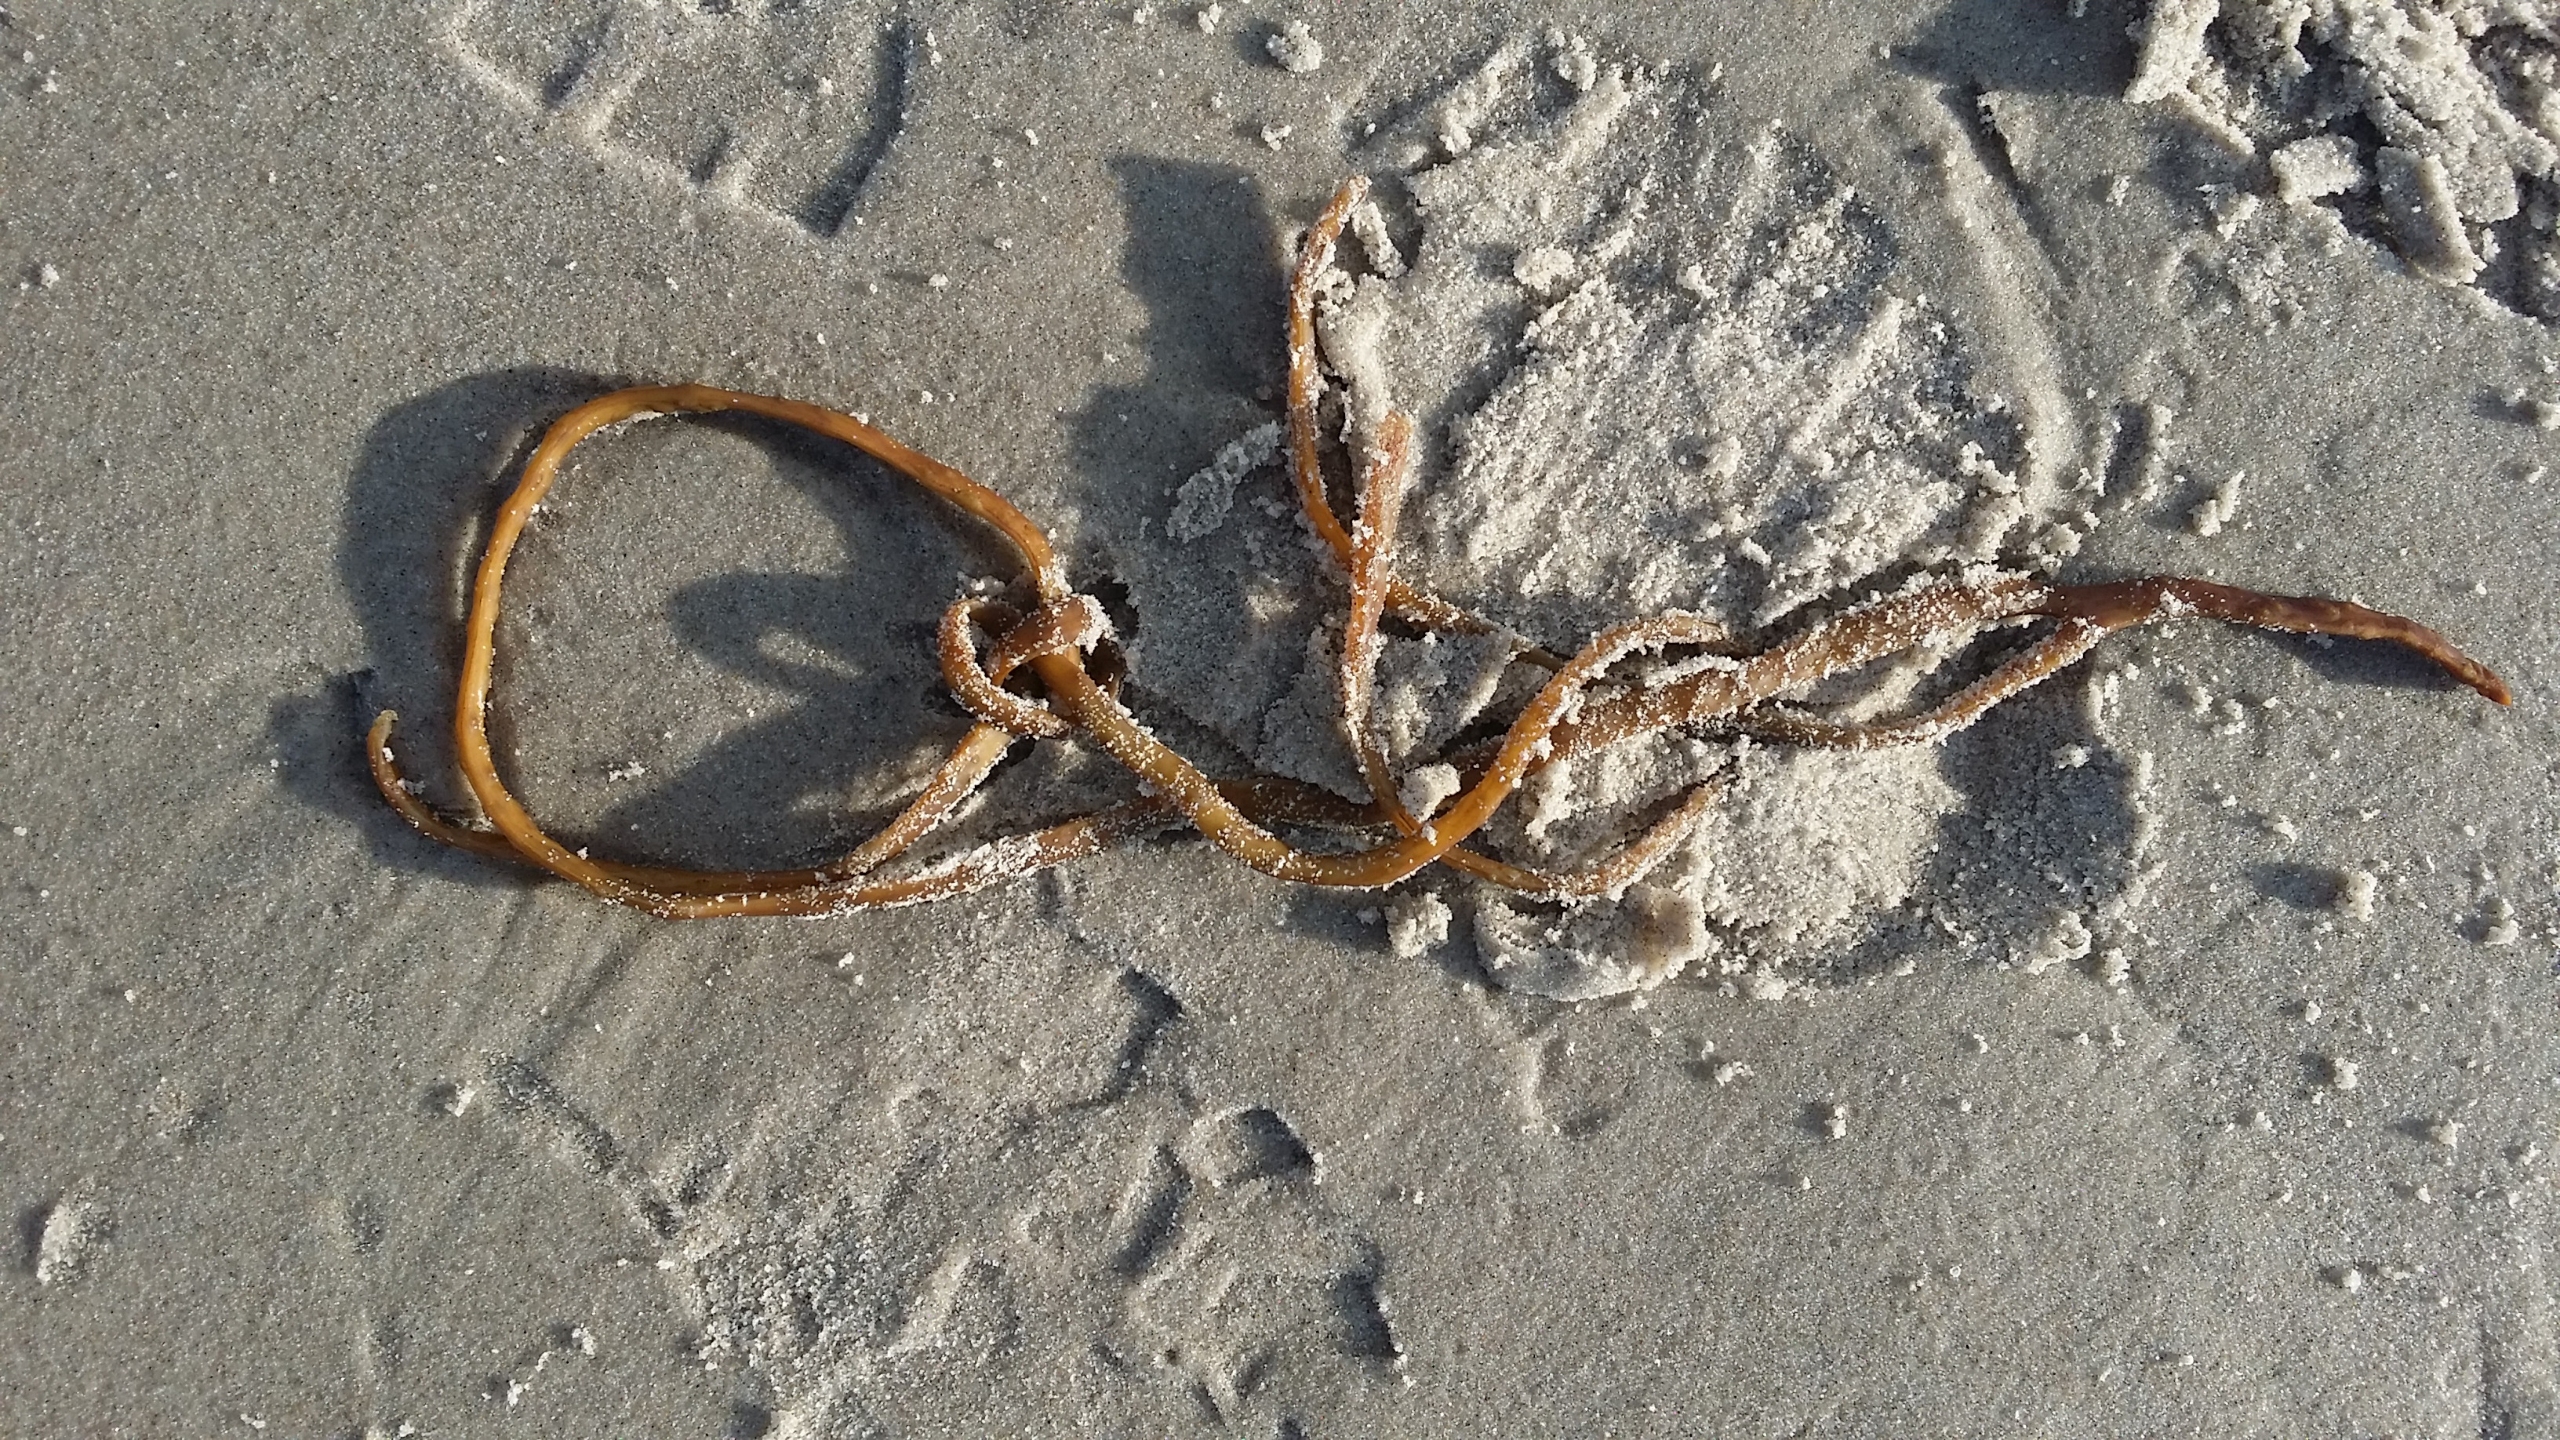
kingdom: Chromista
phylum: Ochrophyta
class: Phaeophyceae
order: Fucales
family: Himanthaliaceae
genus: Himanthalia
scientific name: Himanthalia elongata
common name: Remmetang
